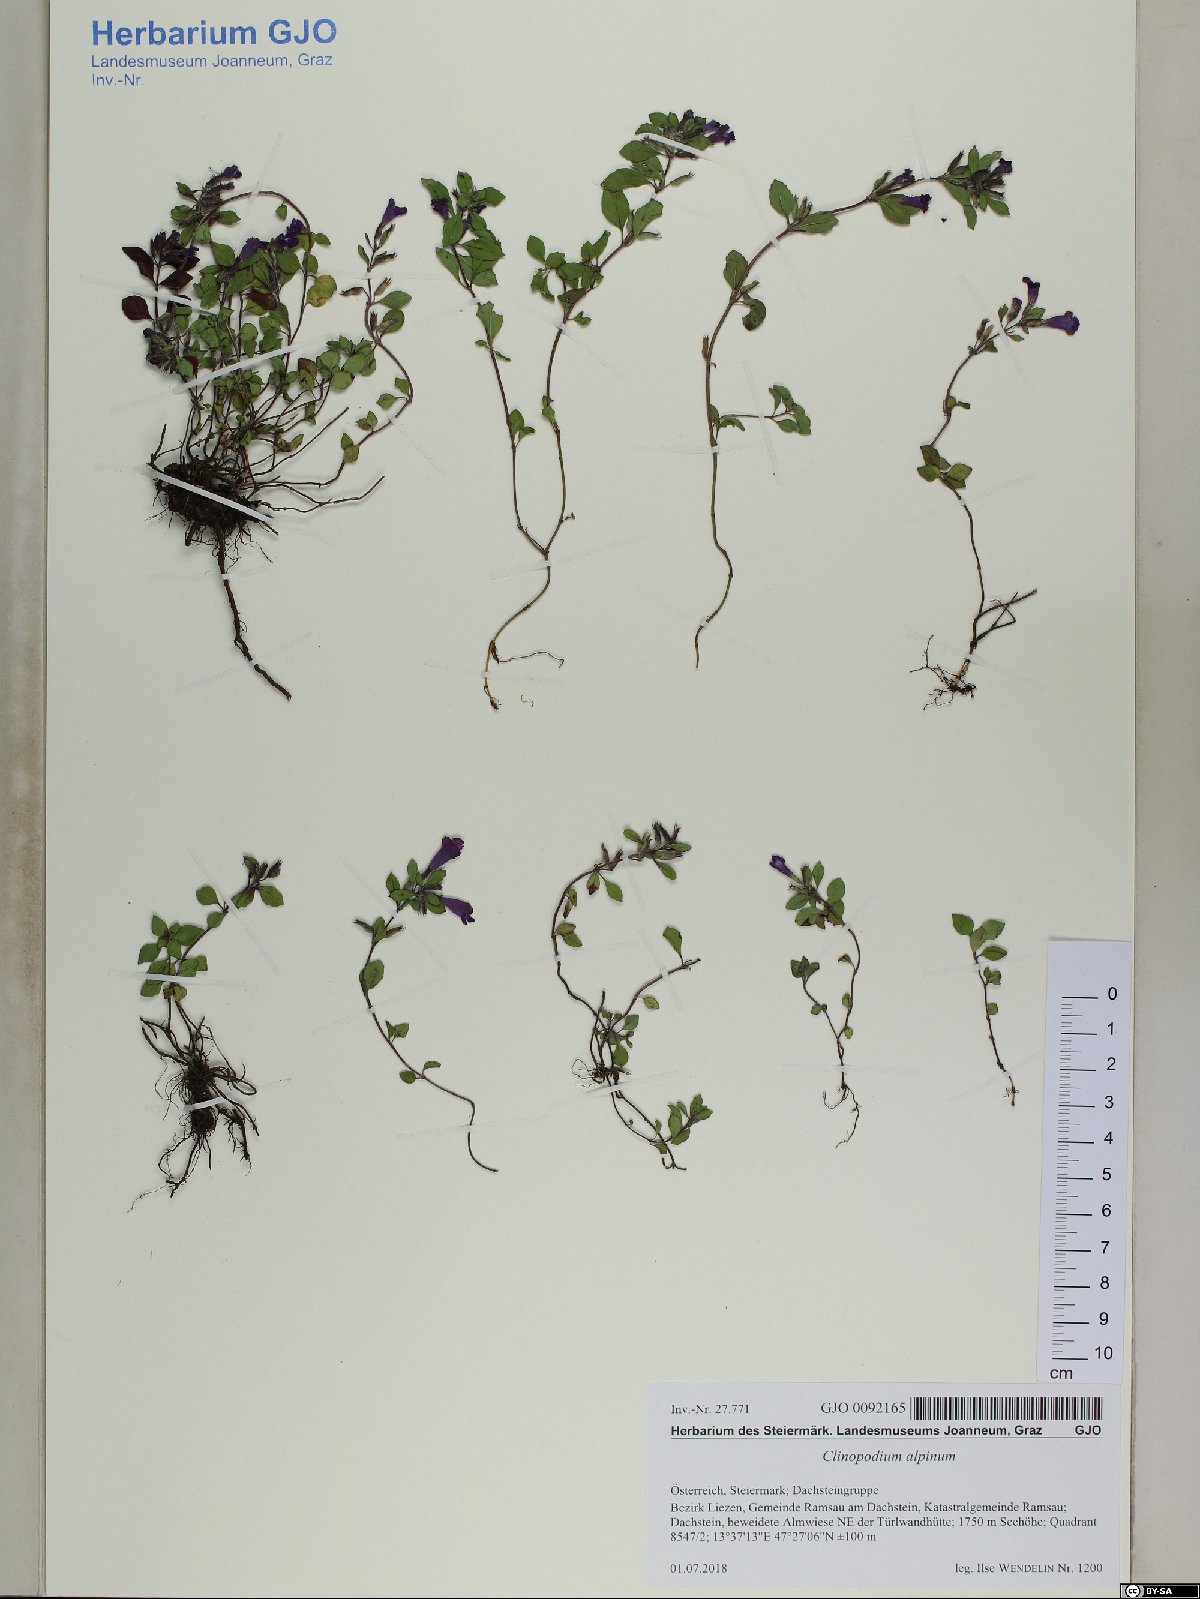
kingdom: Plantae
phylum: Tracheophyta
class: Magnoliopsida
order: Lamiales
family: Lamiaceae
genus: Clinopodium
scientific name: Clinopodium alpinum
